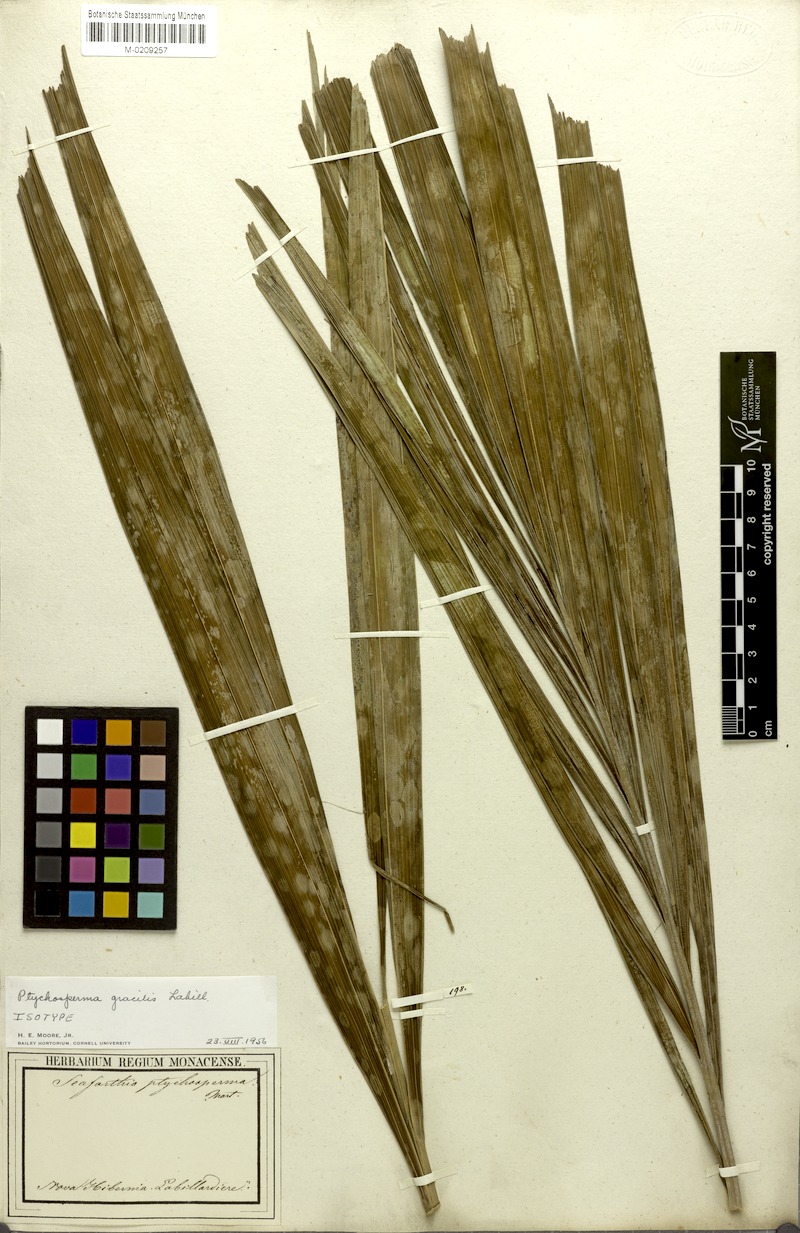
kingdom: Plantae
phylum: Tracheophyta
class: Liliopsida
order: Arecales
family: Arecaceae
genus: Ptychosperma
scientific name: Ptychosperma gracile
